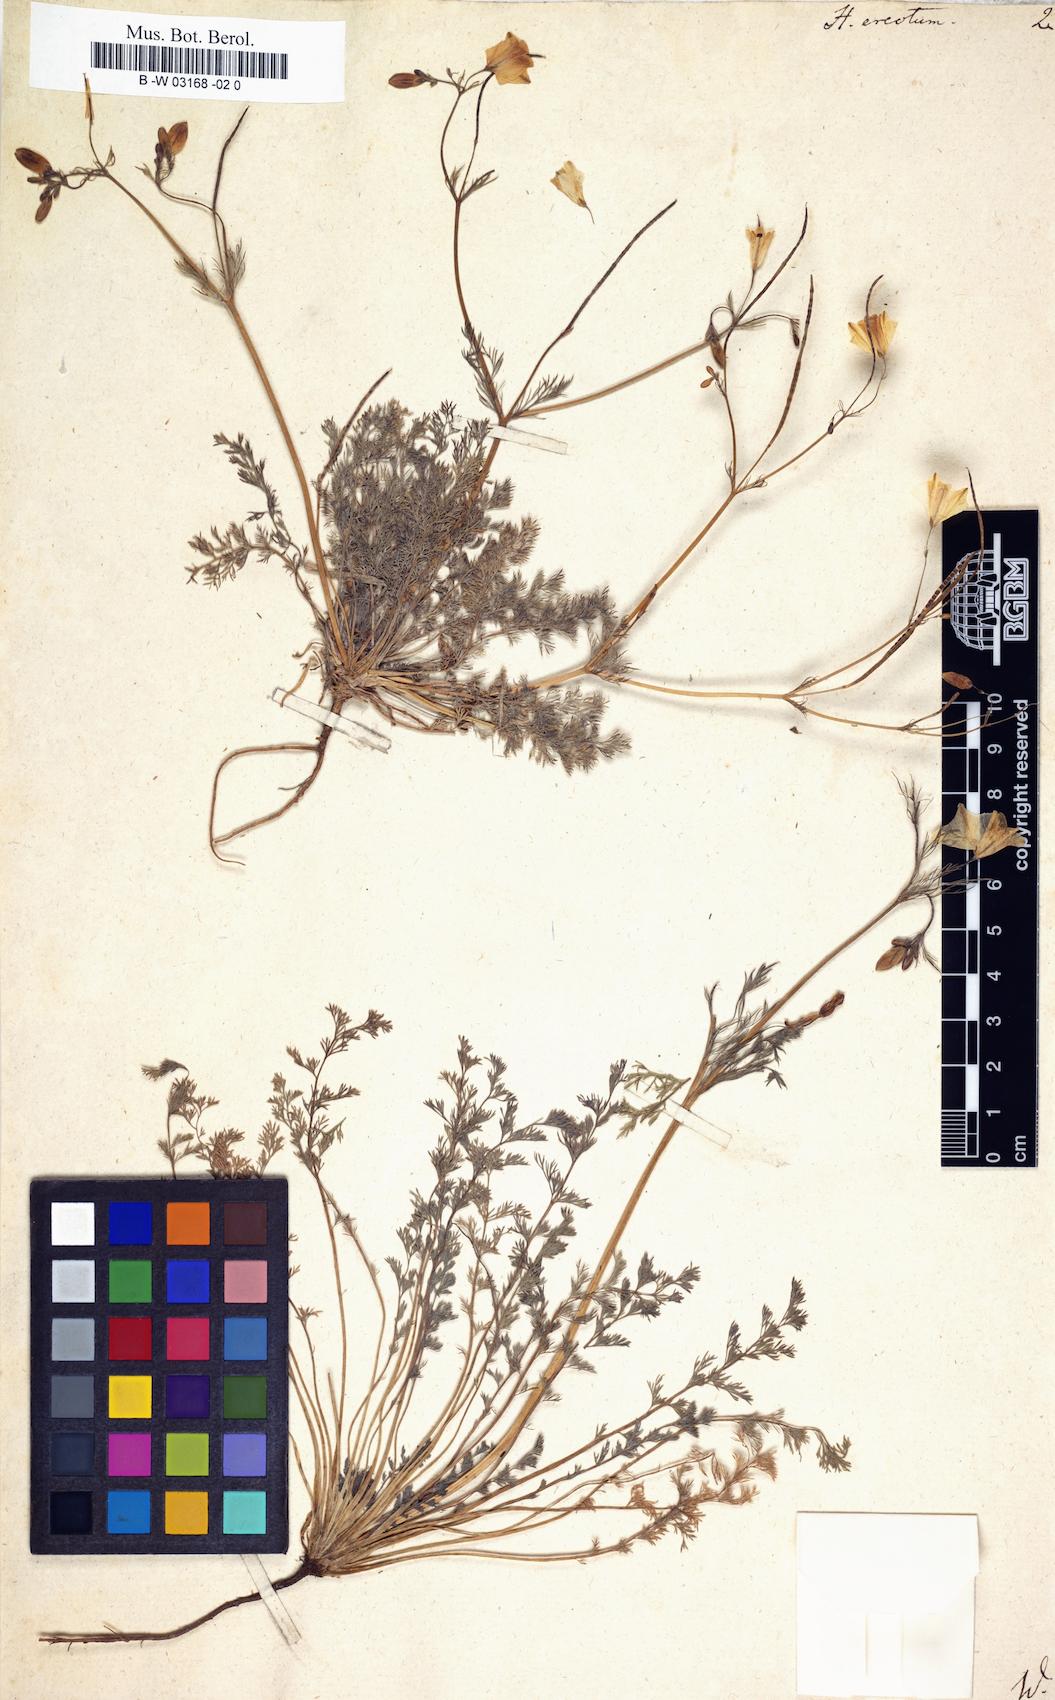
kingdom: Plantae
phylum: Tracheophyta
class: Magnoliopsida
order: Ranunculales
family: Papaveraceae
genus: Hypecoum
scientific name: Hypecoum erectum
